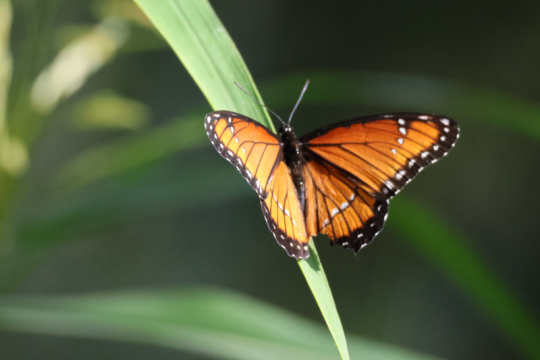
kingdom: Animalia
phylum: Arthropoda
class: Insecta
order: Lepidoptera
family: Nymphalidae
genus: Limenitis
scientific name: Limenitis archippus
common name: Viceroy
